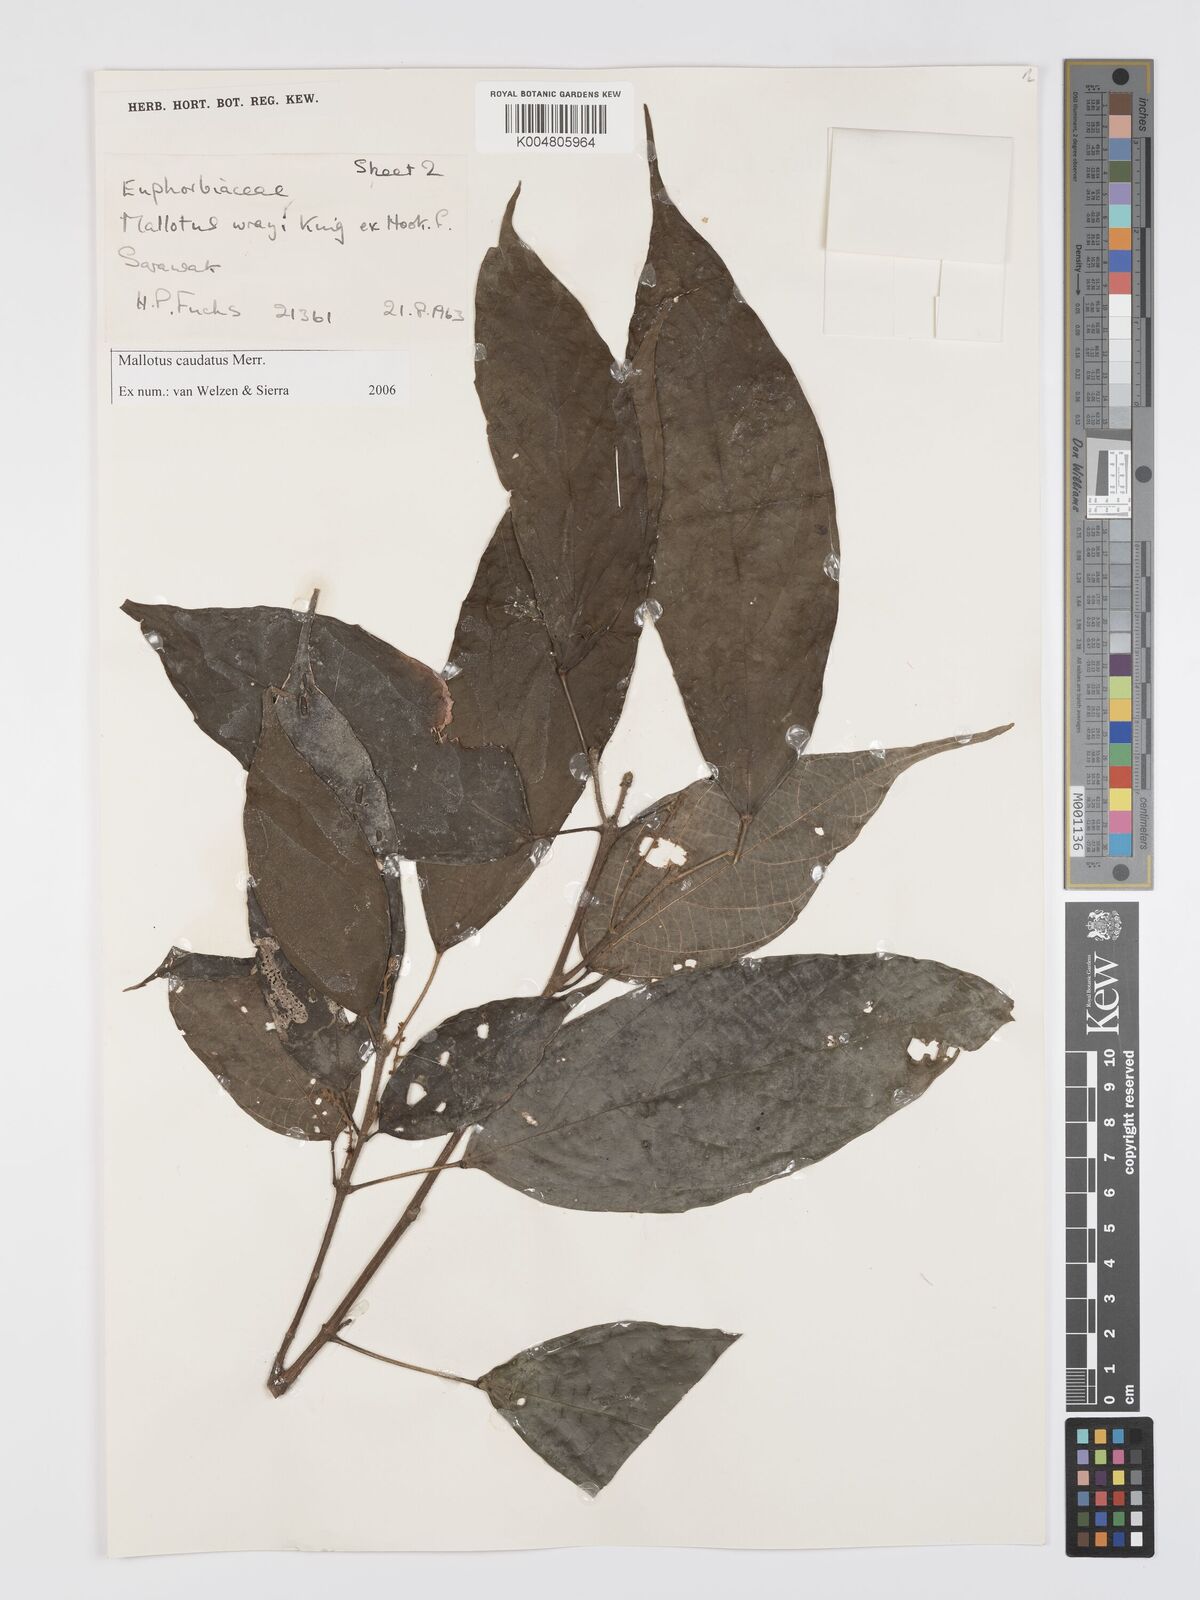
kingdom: Plantae
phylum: Tracheophyta
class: Magnoliopsida
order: Malpighiales
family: Euphorbiaceae
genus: Mallotus
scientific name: Mallotus caudatus
